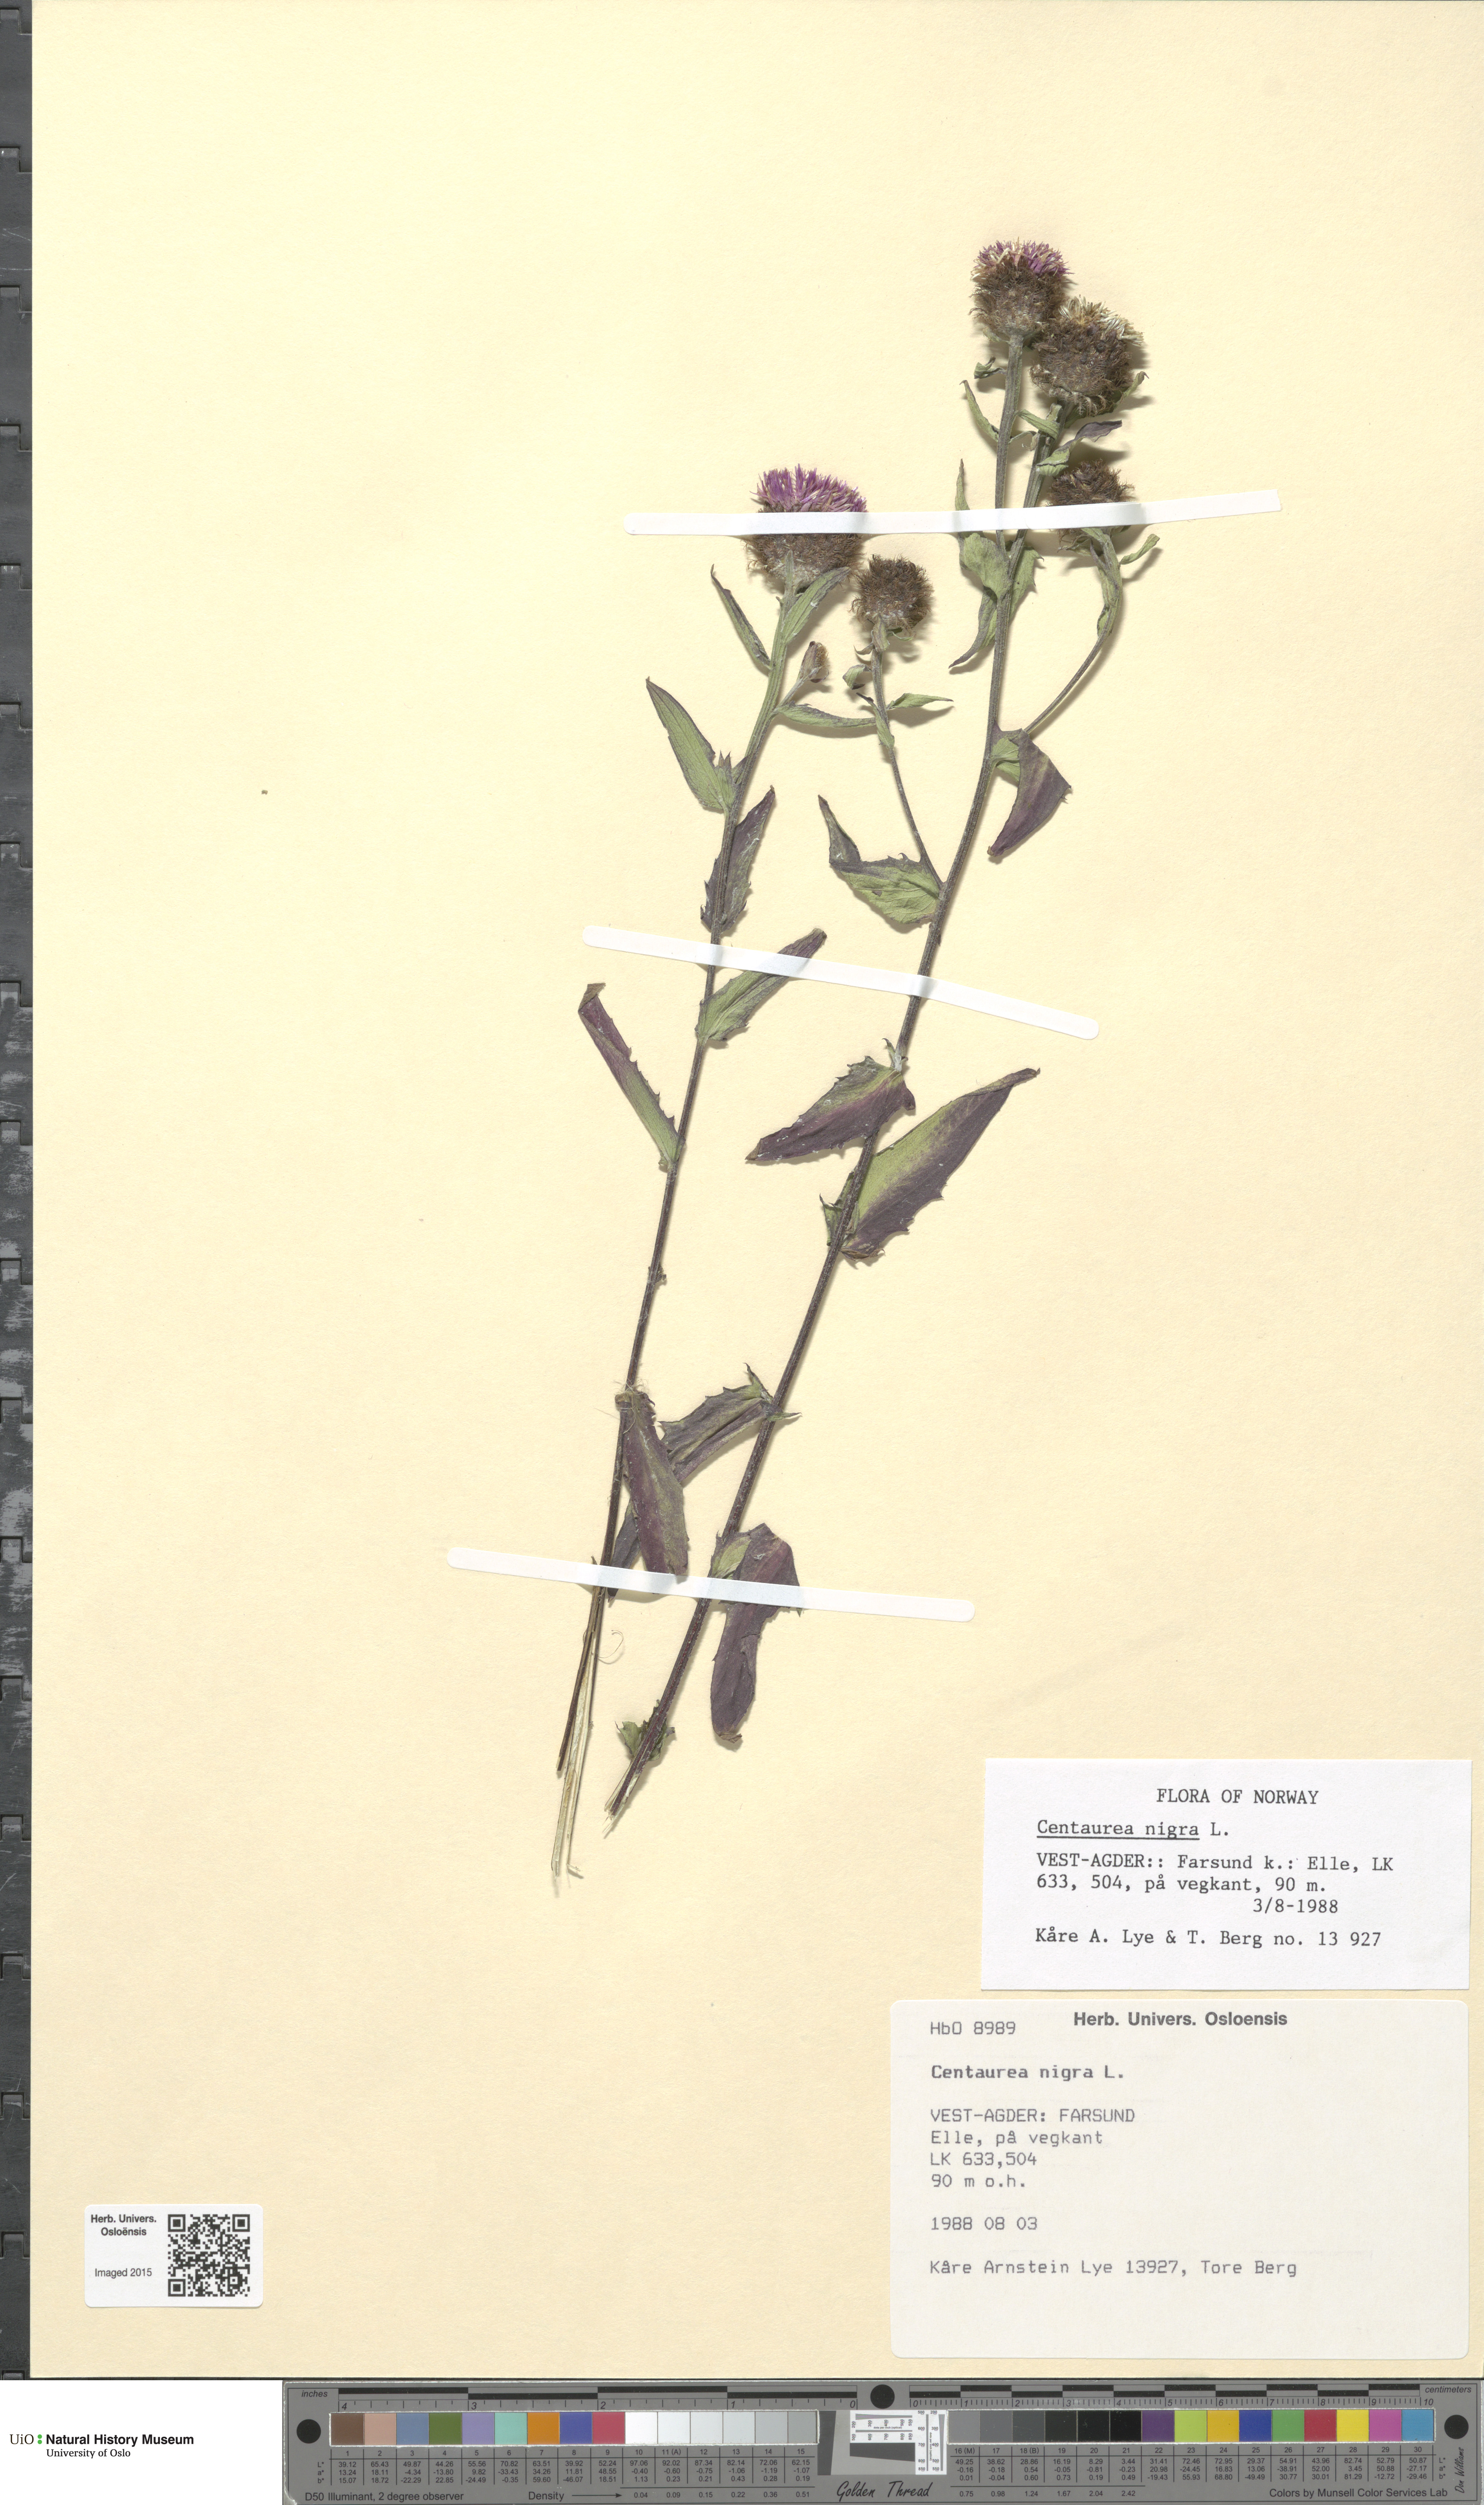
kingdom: Plantae
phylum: Tracheophyta
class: Magnoliopsida
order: Asterales
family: Asteraceae
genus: Centaurea
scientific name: Centaurea nigra
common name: Lesser knapweed
